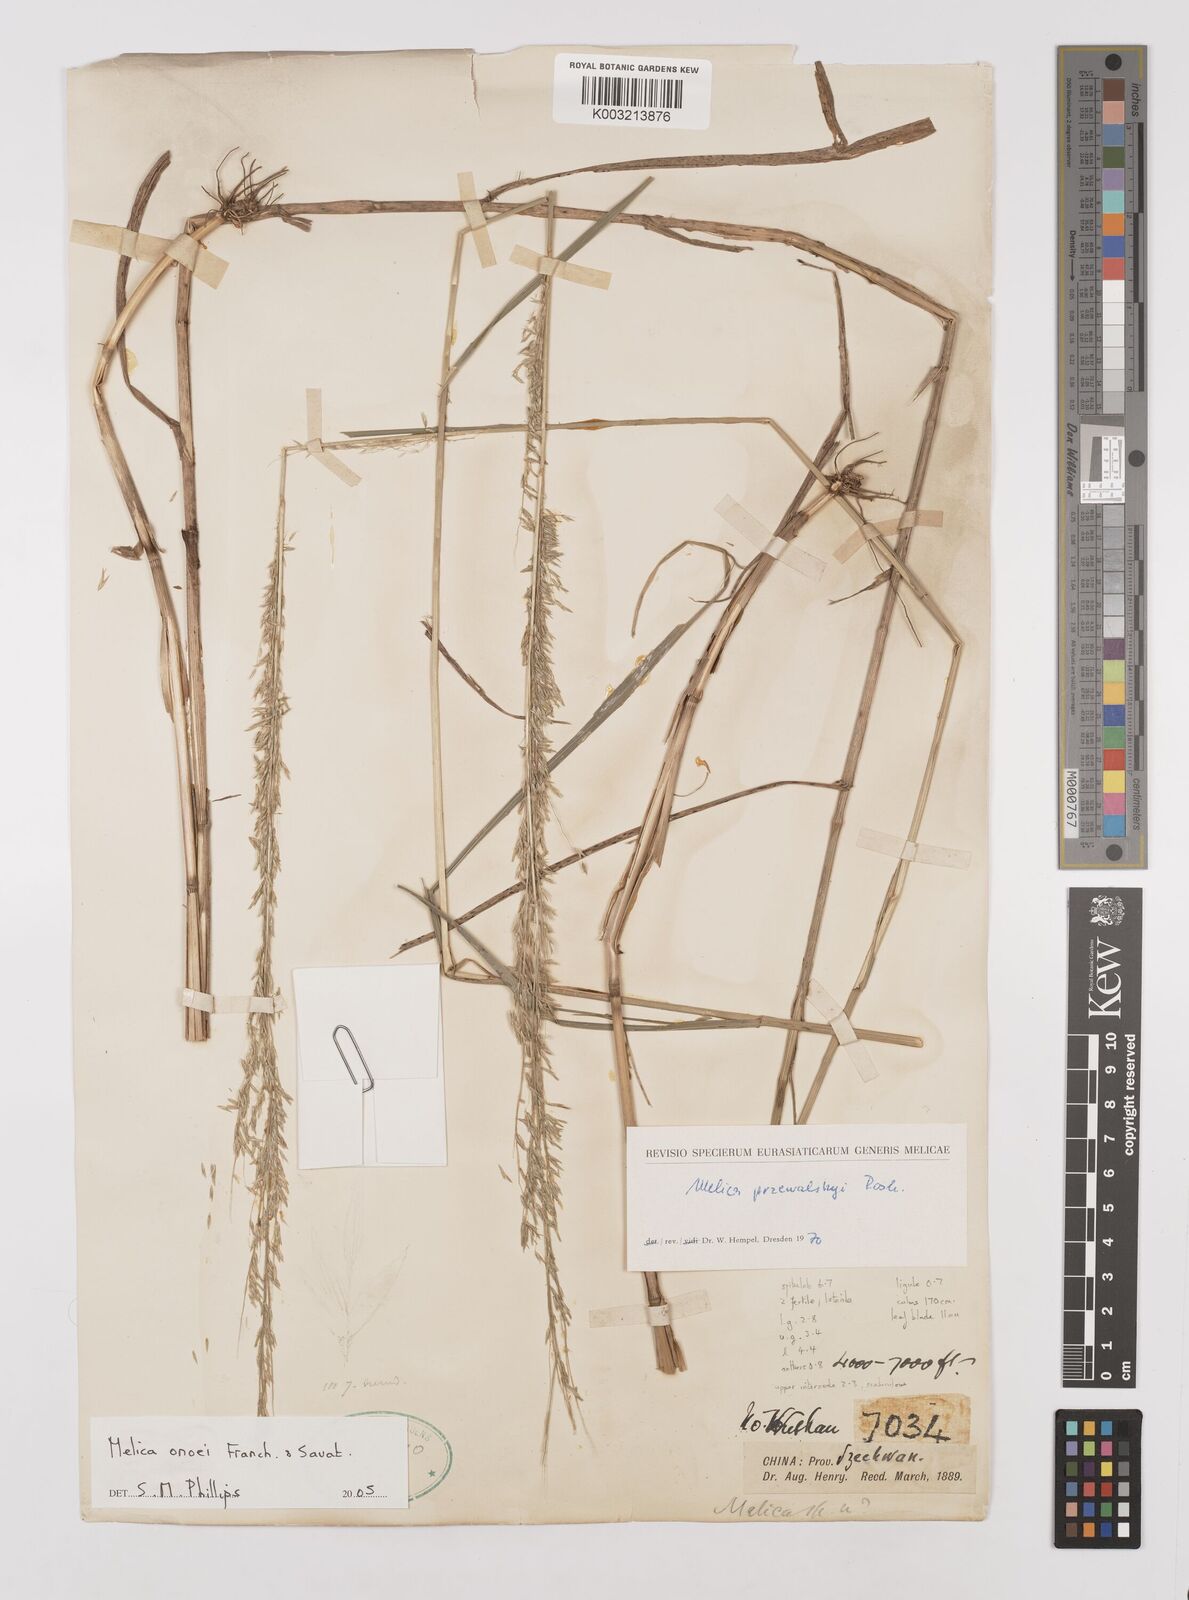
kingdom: Plantae
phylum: Tracheophyta
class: Liliopsida
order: Poales
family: Poaceae
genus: Melica
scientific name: Melica onoei
